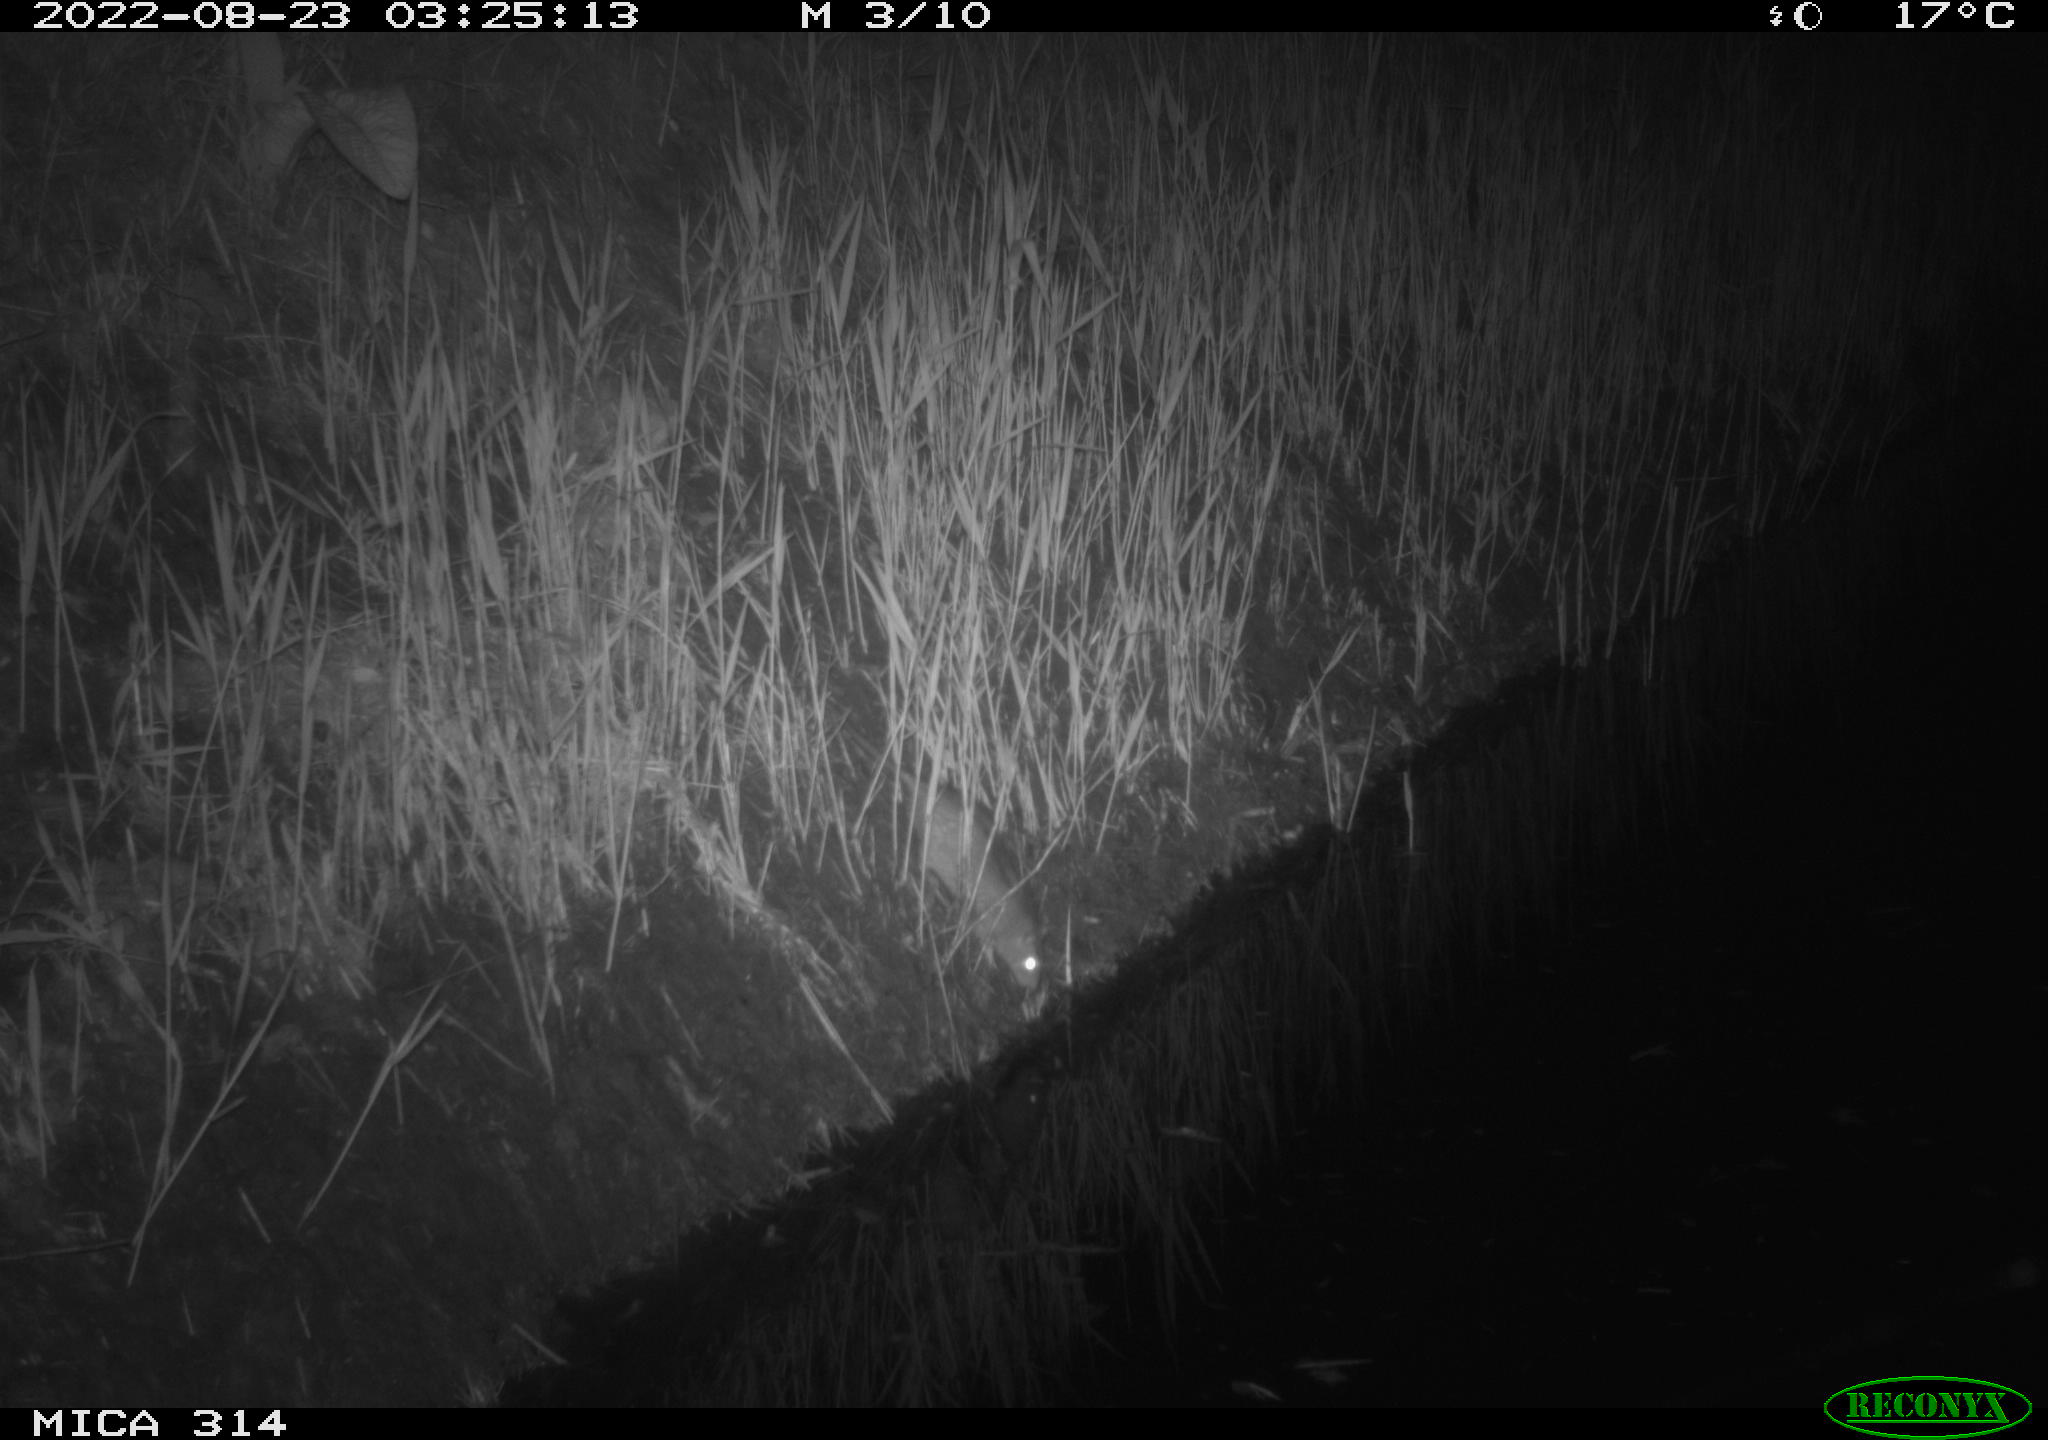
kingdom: Animalia
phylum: Chordata
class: Mammalia
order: Rodentia
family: Muridae
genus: Rattus
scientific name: Rattus norvegicus
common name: Brown rat
